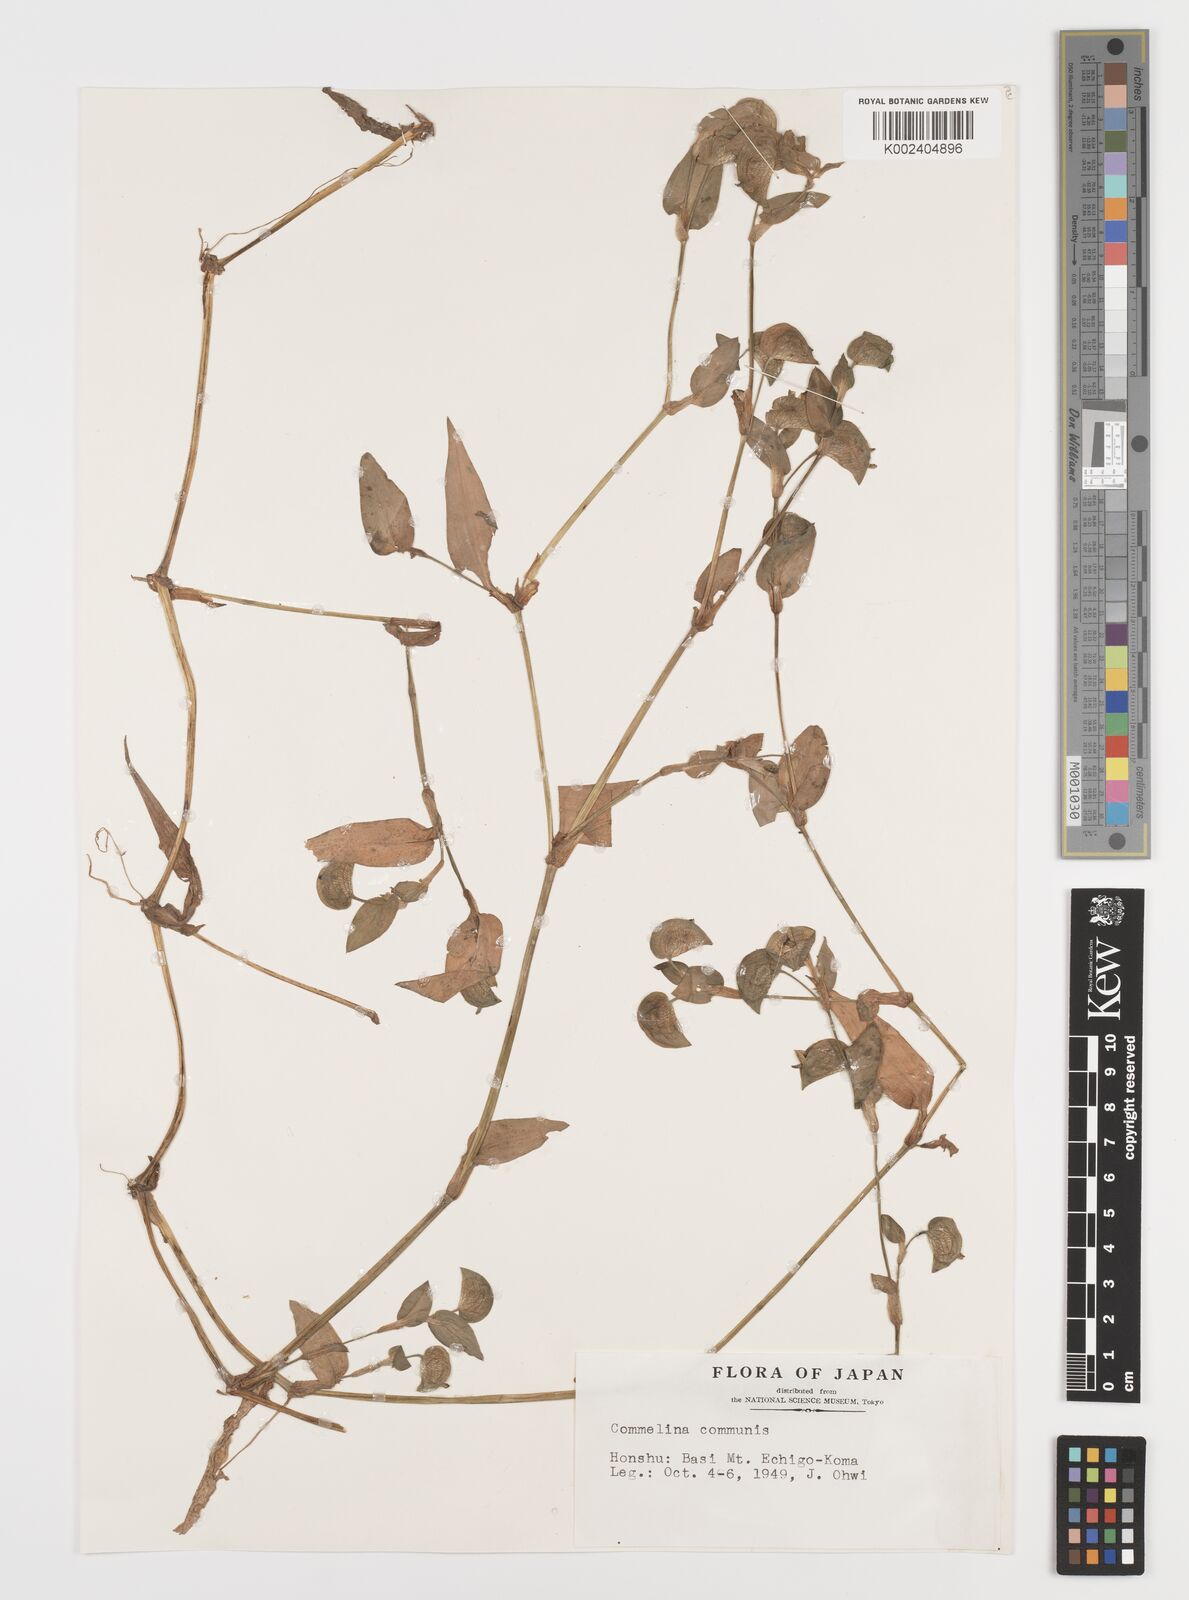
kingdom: Plantae
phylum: Tracheophyta
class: Liliopsida
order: Commelinales
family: Commelinaceae
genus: Commelina
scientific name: Commelina communis
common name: Asiatic dayflower
